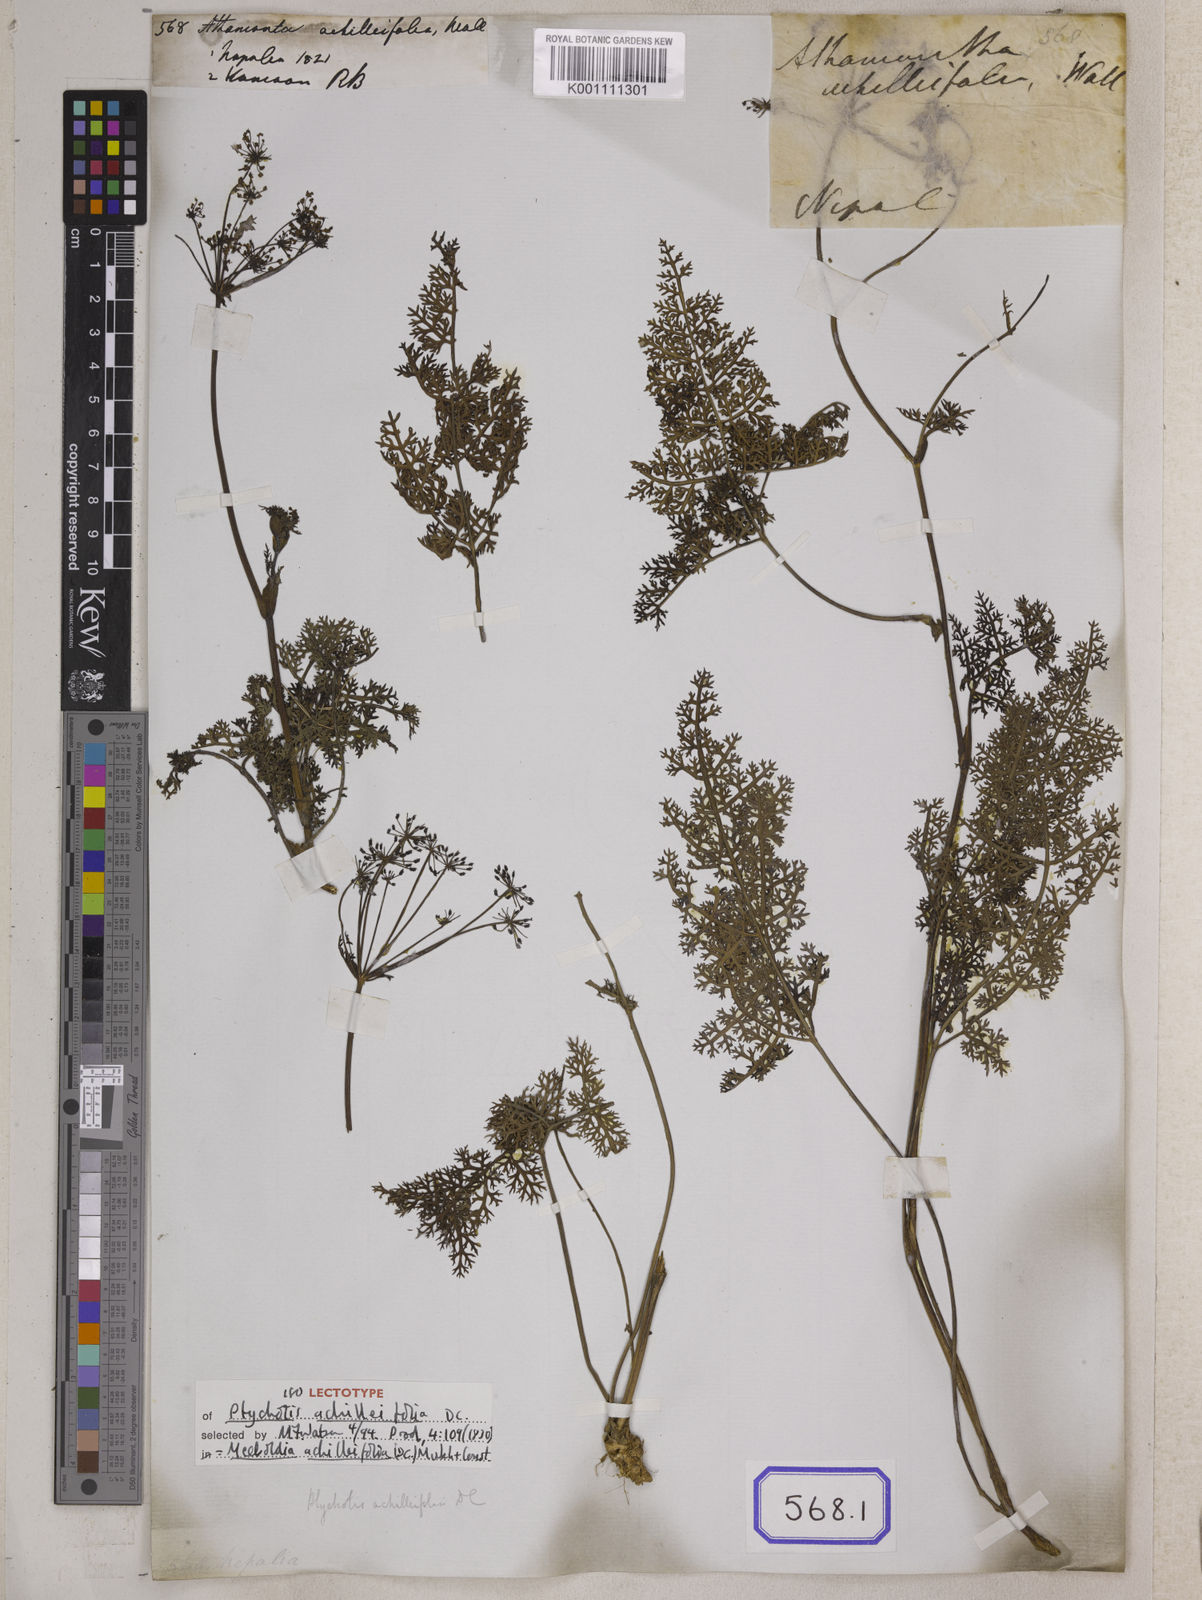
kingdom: Plantae
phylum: Tracheophyta
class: Magnoliopsida
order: Apiales
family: Apiaceae
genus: Meeboldia
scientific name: Meeboldia achilleifolia
